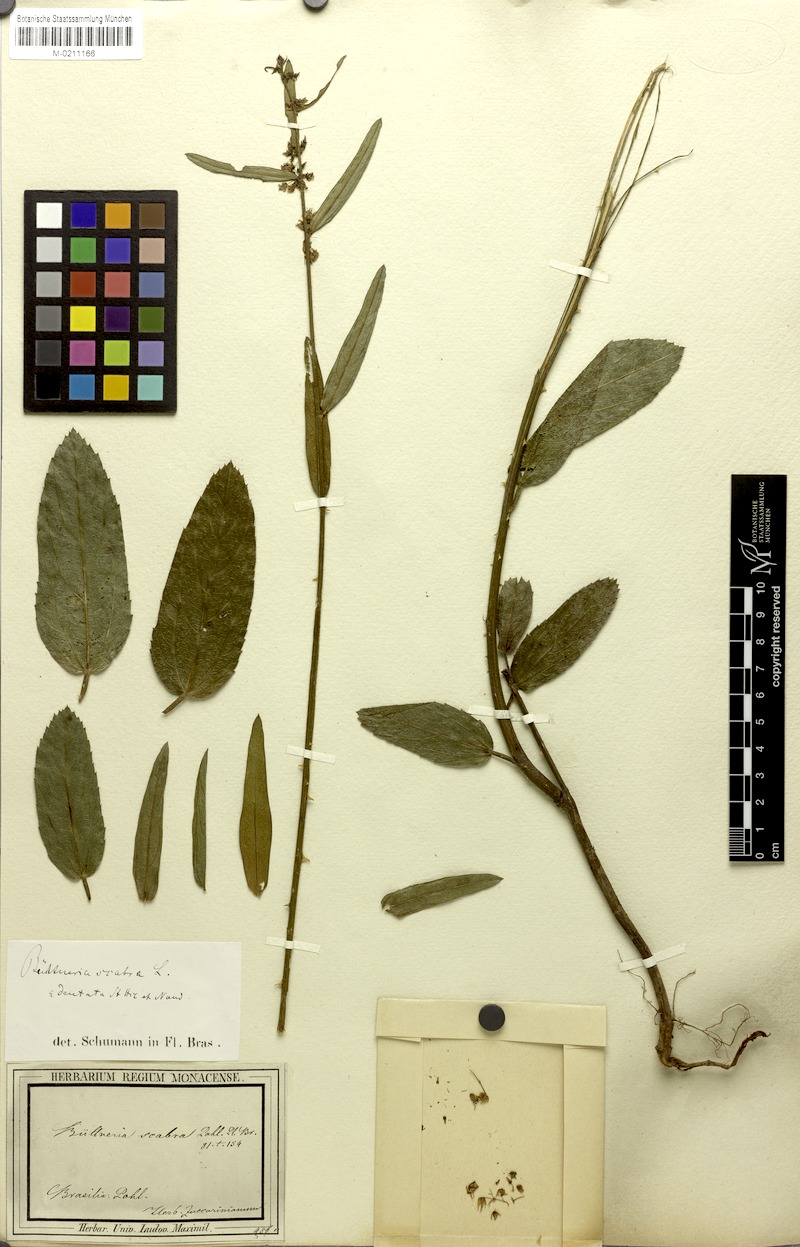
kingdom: Plantae
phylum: Tracheophyta
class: Magnoliopsida
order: Malvales
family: Malvaceae
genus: Byttneria
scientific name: Byttneria scabra
